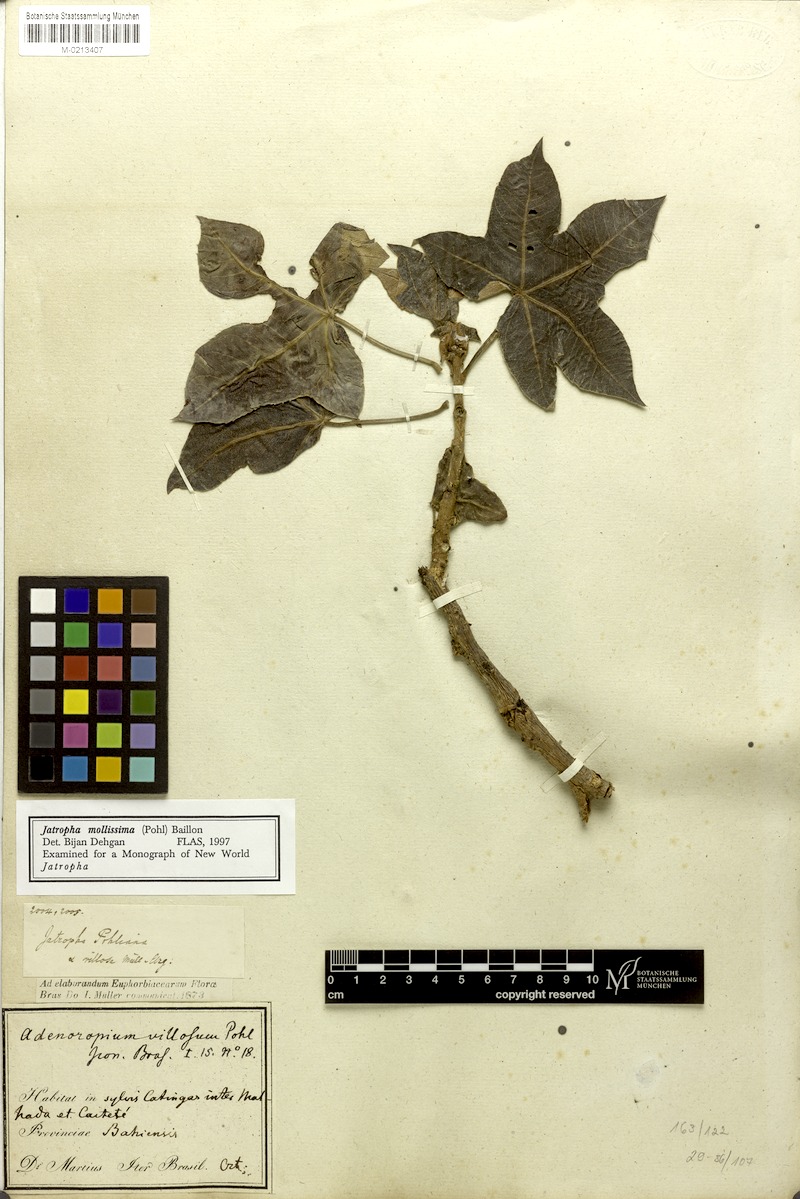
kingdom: Plantae
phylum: Tracheophyta
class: Magnoliopsida
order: Malpighiales
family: Euphorbiaceae
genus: Jatropha
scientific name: Jatropha mollissima
